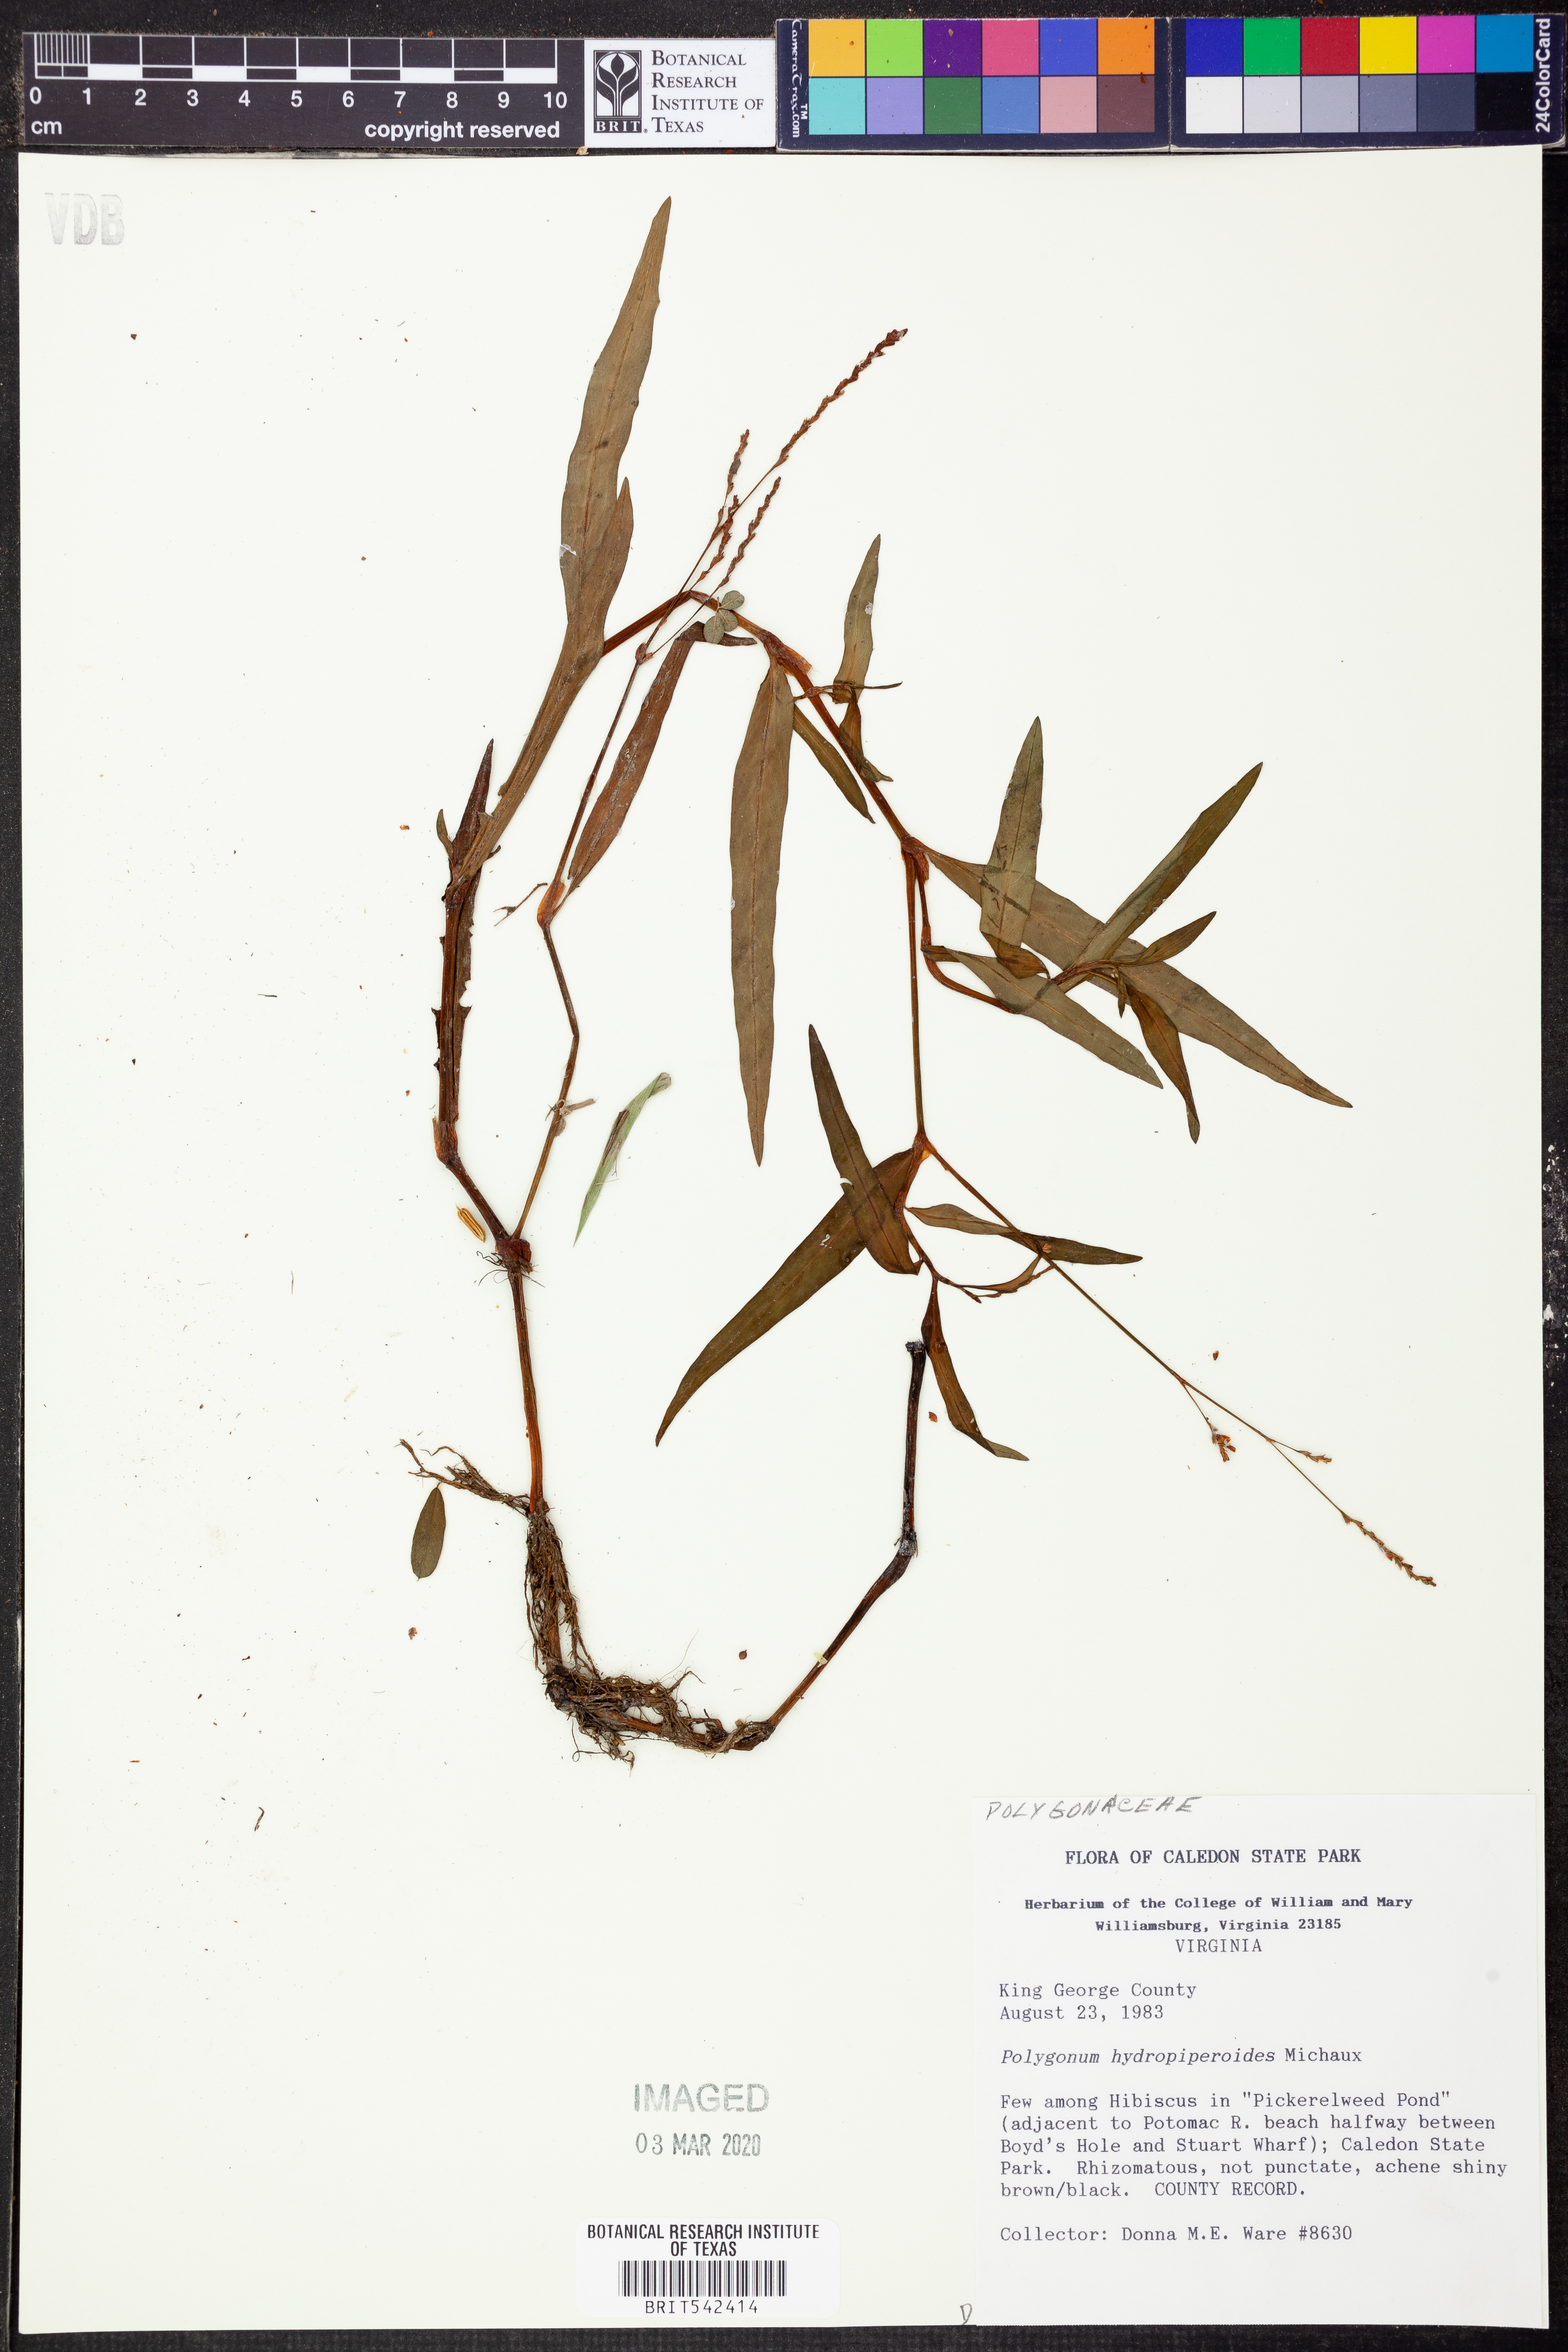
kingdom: Plantae
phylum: Tracheophyta
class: Magnoliopsida
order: Caryophyllales
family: Polygonaceae
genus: Persicaria
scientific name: Persicaria hydropiperoides
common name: Swamp smartweed
